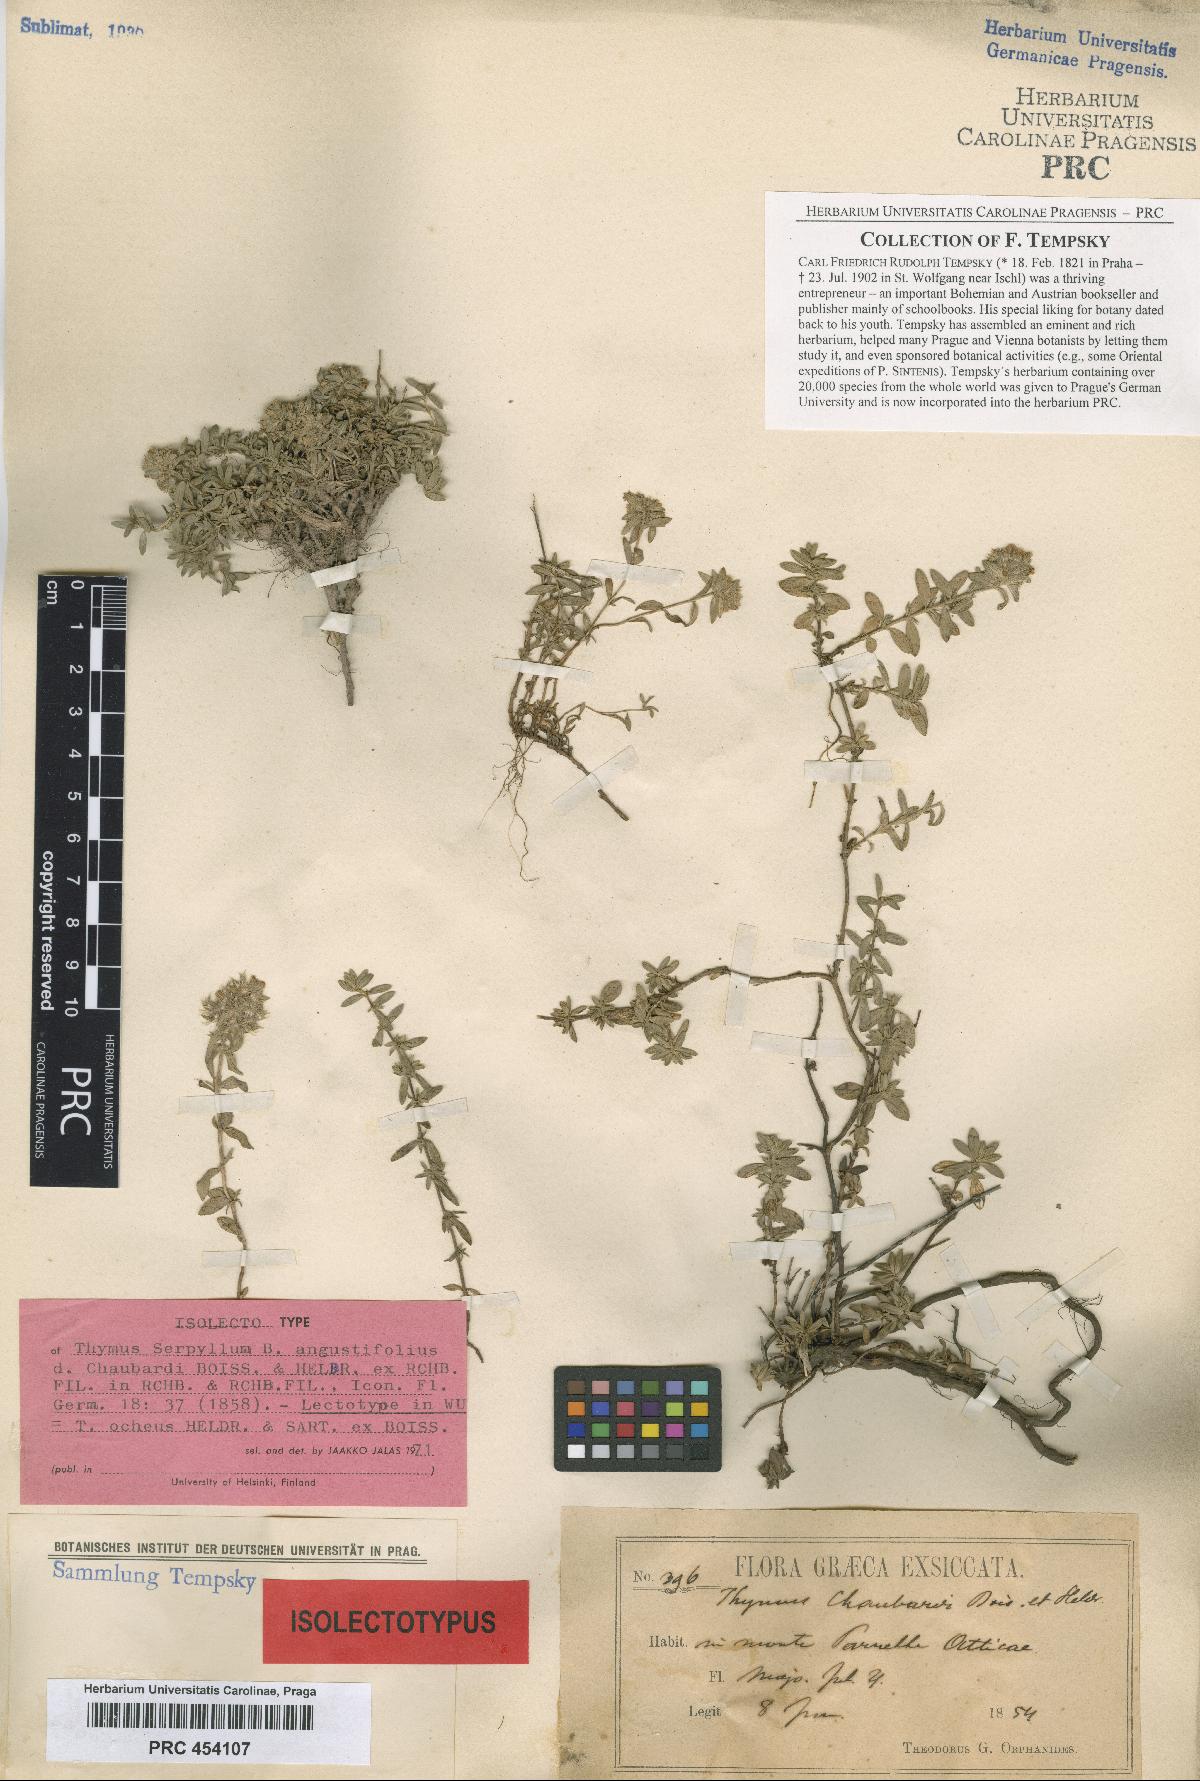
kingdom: Plantae
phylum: Tracheophyta
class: Magnoliopsida
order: Lamiales
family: Lamiaceae
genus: Thymus
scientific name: Thymus longicaulis
